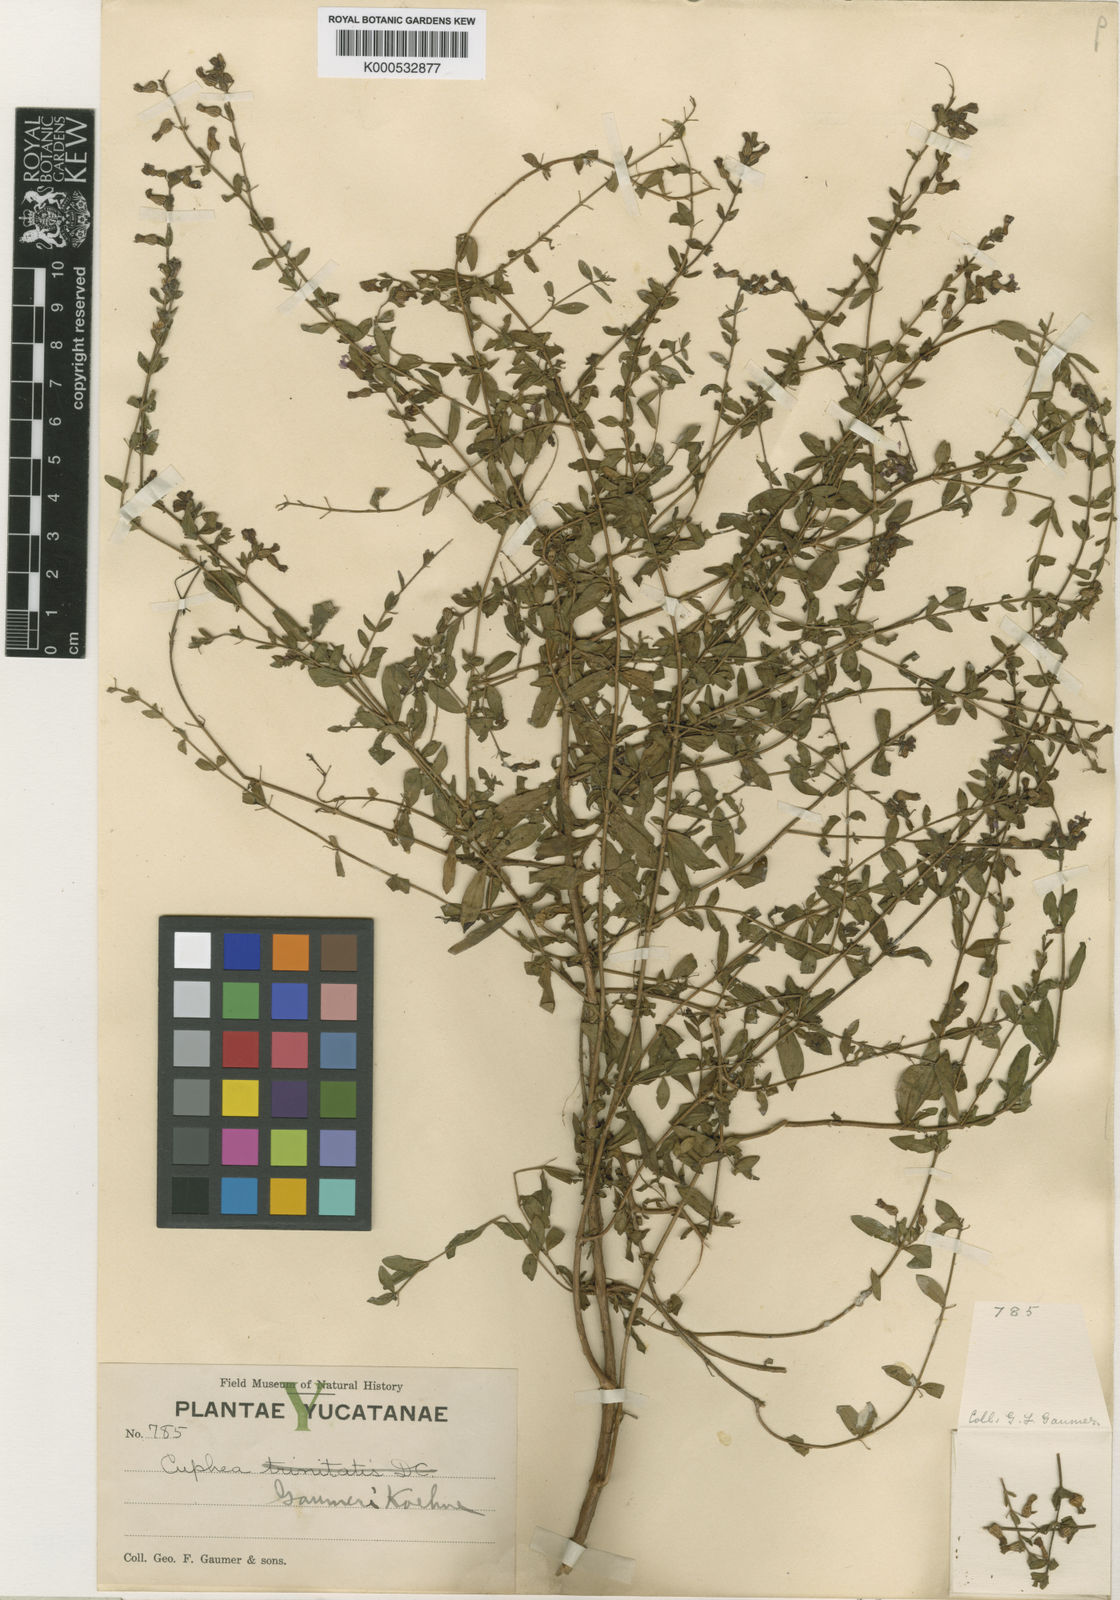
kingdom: Plantae
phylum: Tracheophyta
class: Magnoliopsida
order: Myrtales
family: Lythraceae
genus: Cuphea
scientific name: Cuphea gaumeri
